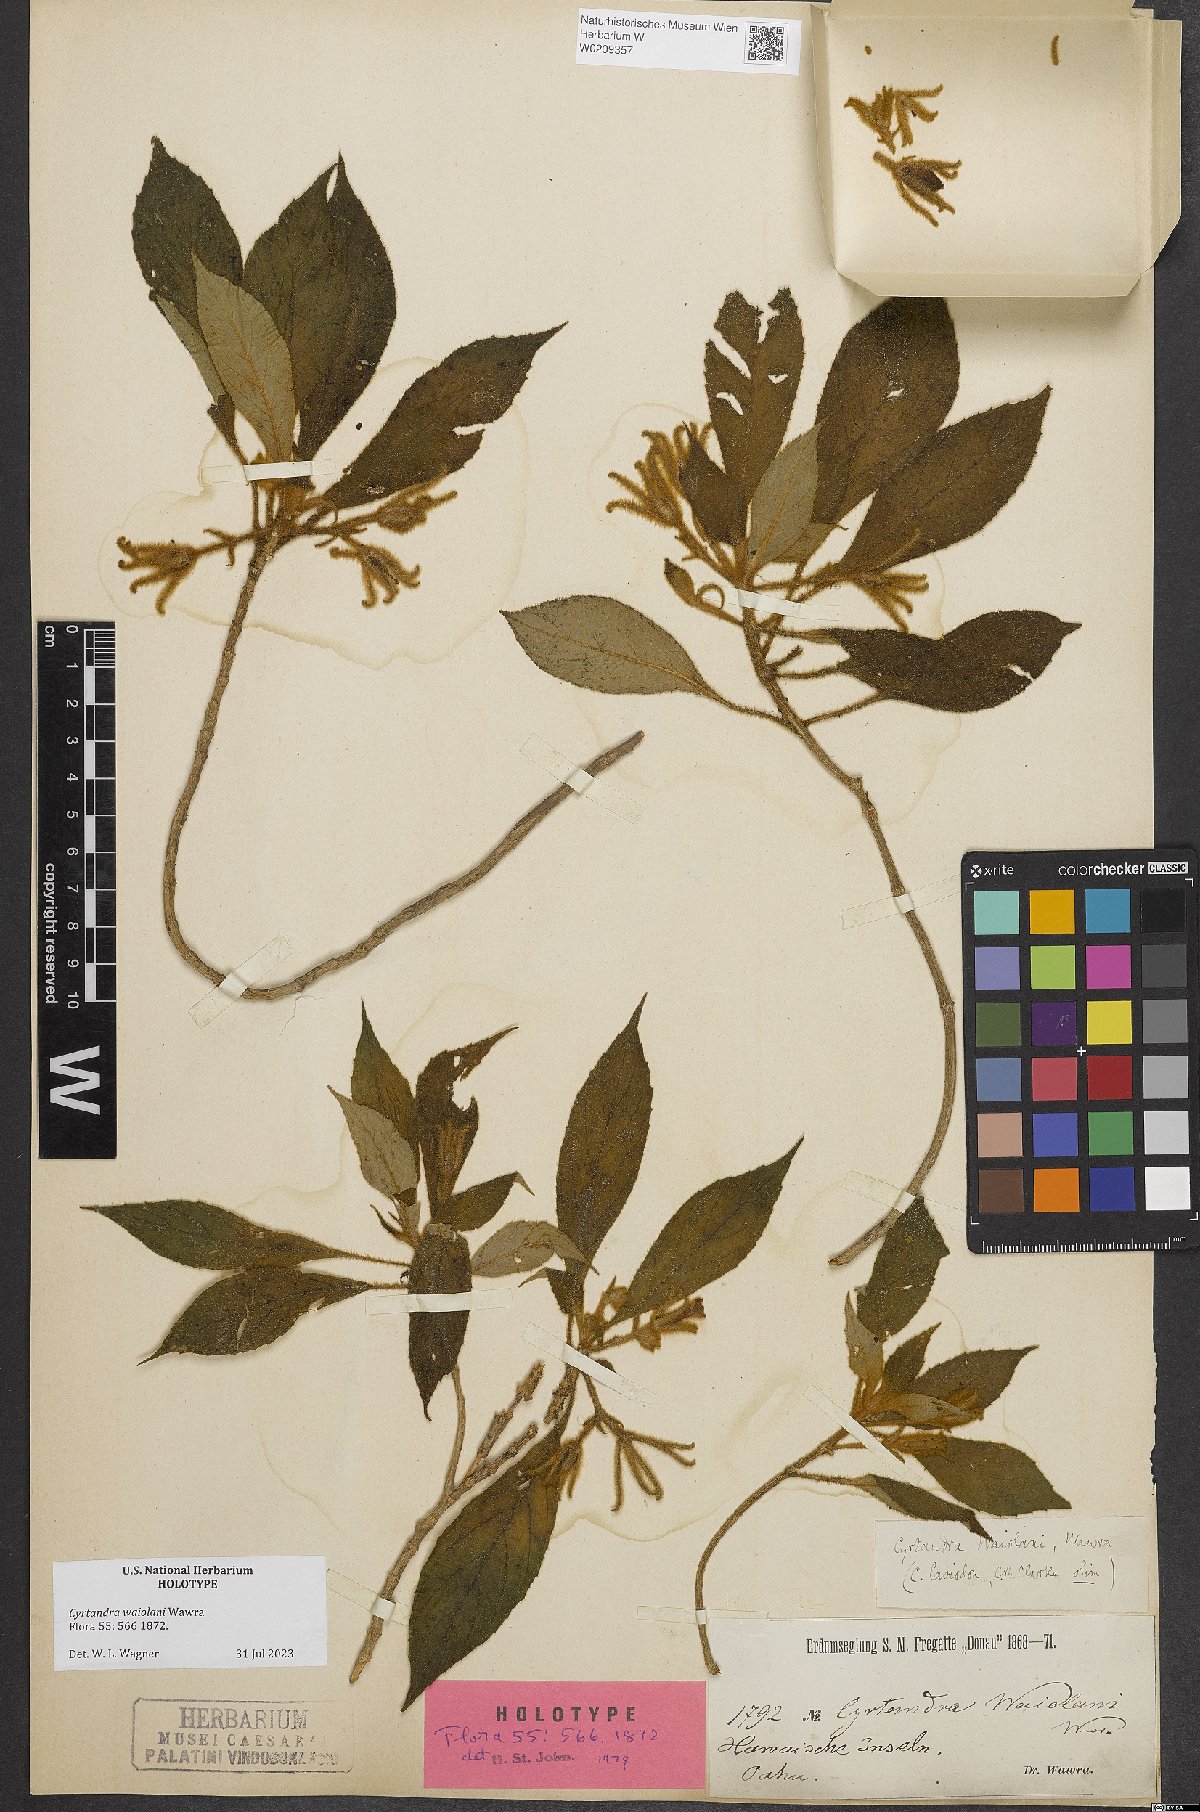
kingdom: Plantae
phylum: Tracheophyta
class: Magnoliopsida
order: Lamiales
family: Gesneriaceae
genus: Cyrtandra
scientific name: Cyrtandra waiolani
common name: Fuzzyflower cyrtandra
